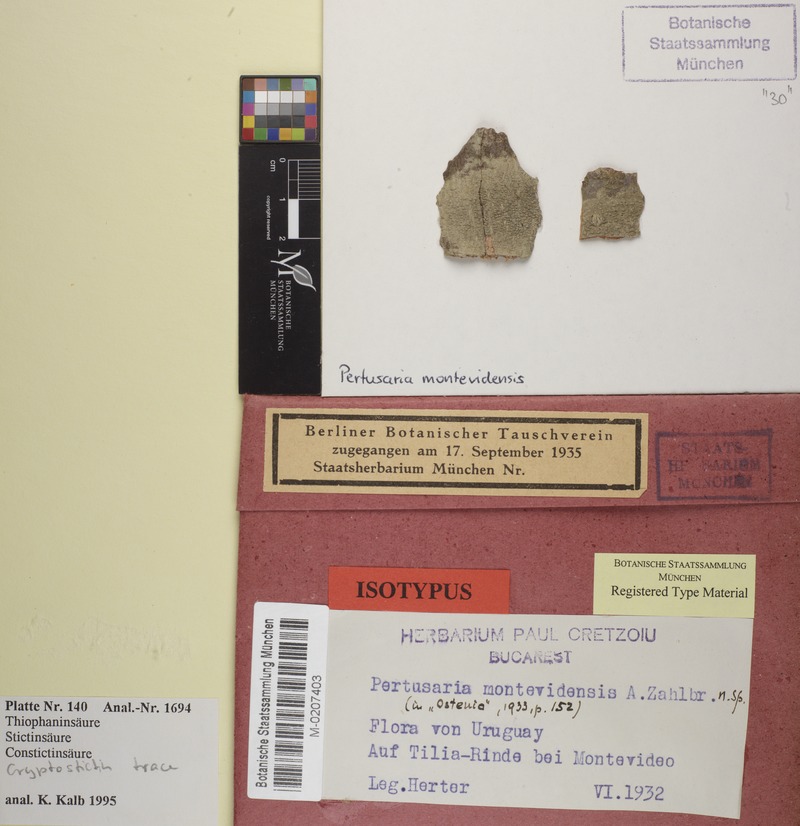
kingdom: Fungi
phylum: Ascomycota
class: Lecanoromycetes
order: Pertusariales
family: Pertusariaceae
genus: Pertusaria
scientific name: Pertusaria montevidensis
